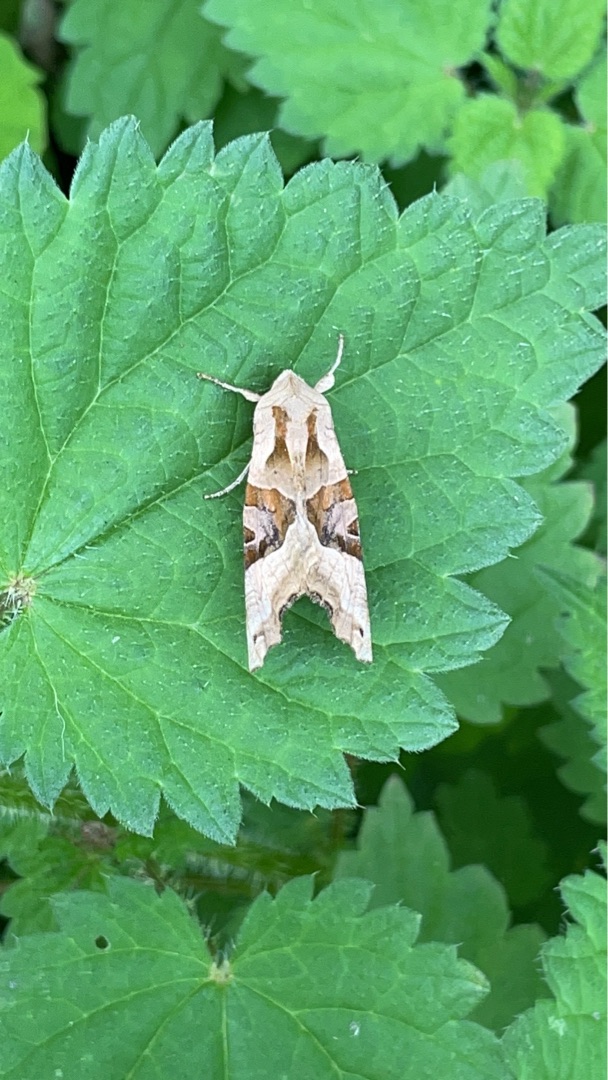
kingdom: Animalia
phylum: Arthropoda
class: Insecta
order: Lepidoptera
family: Noctuidae
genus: Phlogophora
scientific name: Phlogophora meticulosa
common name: Agatugle
